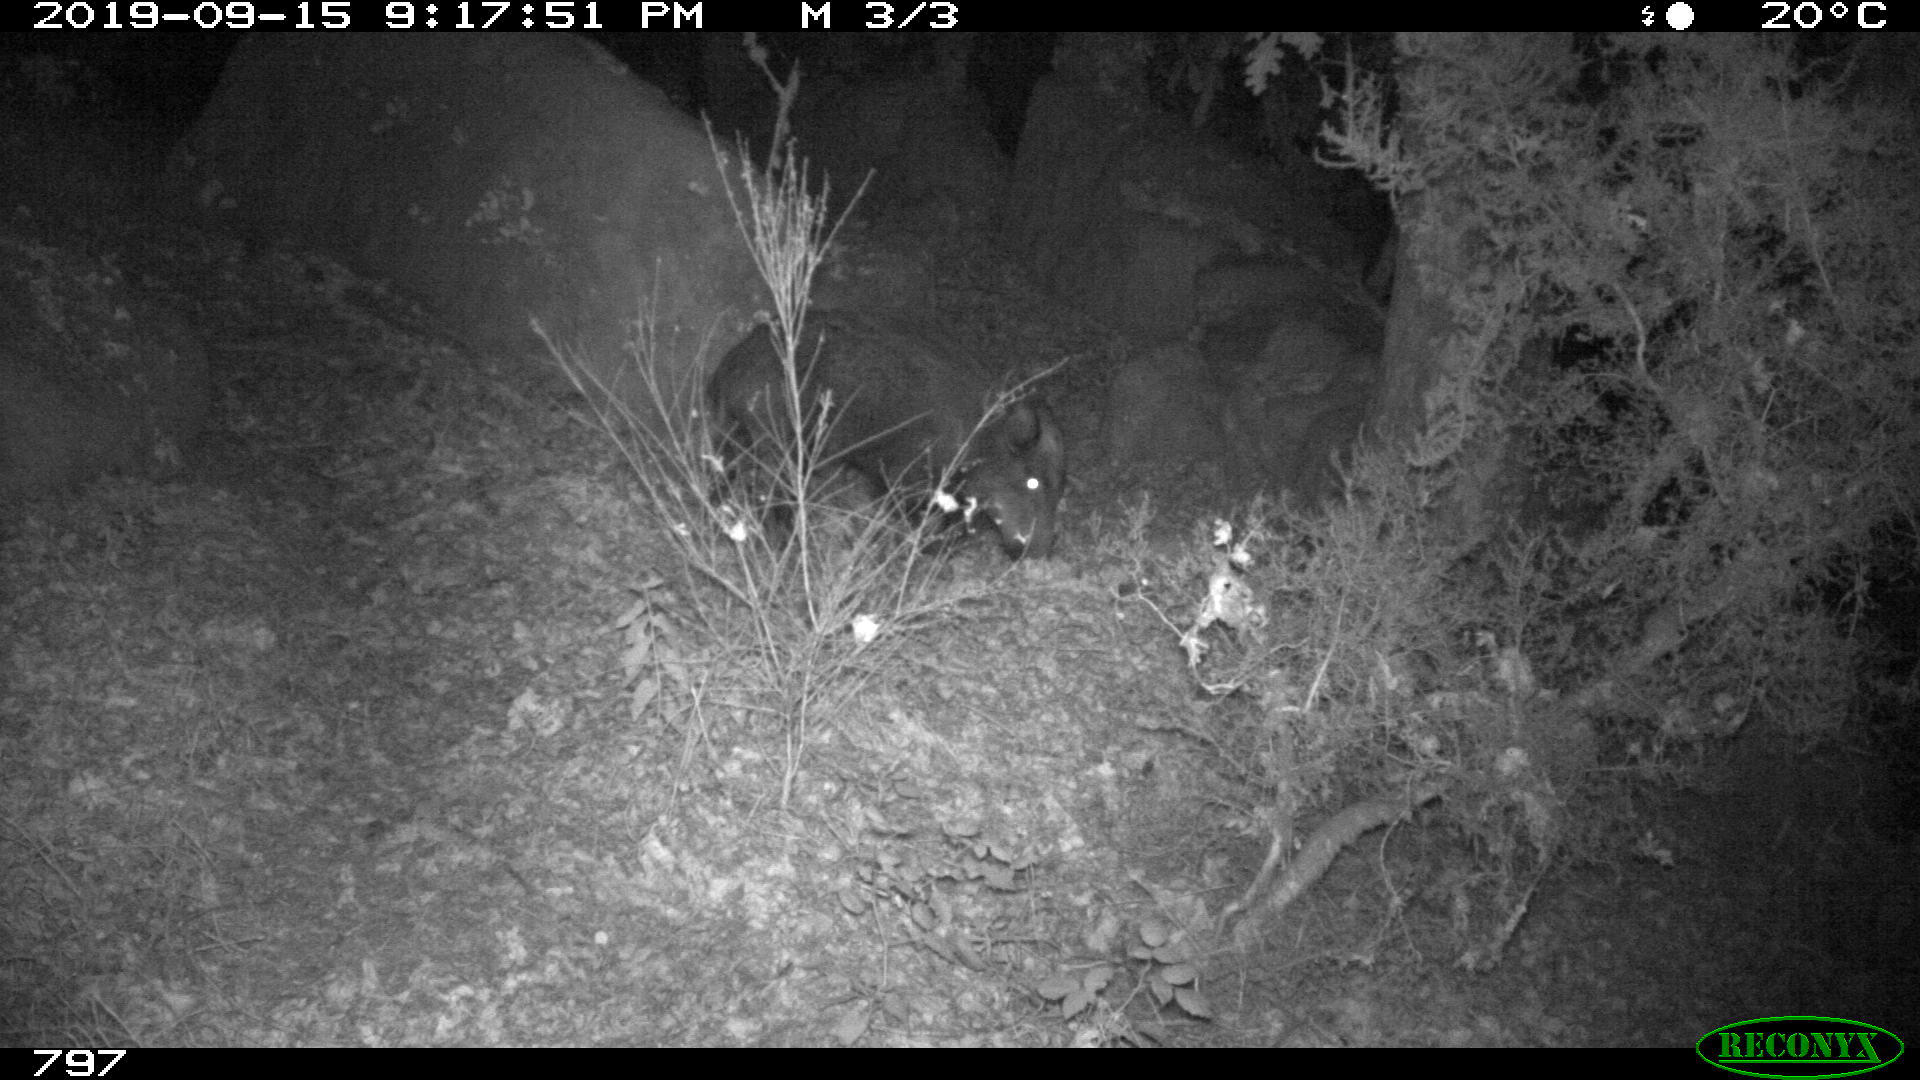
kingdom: Animalia
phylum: Chordata
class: Mammalia
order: Artiodactyla
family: Suidae
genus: Sus
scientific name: Sus scrofa
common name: Wild boar
